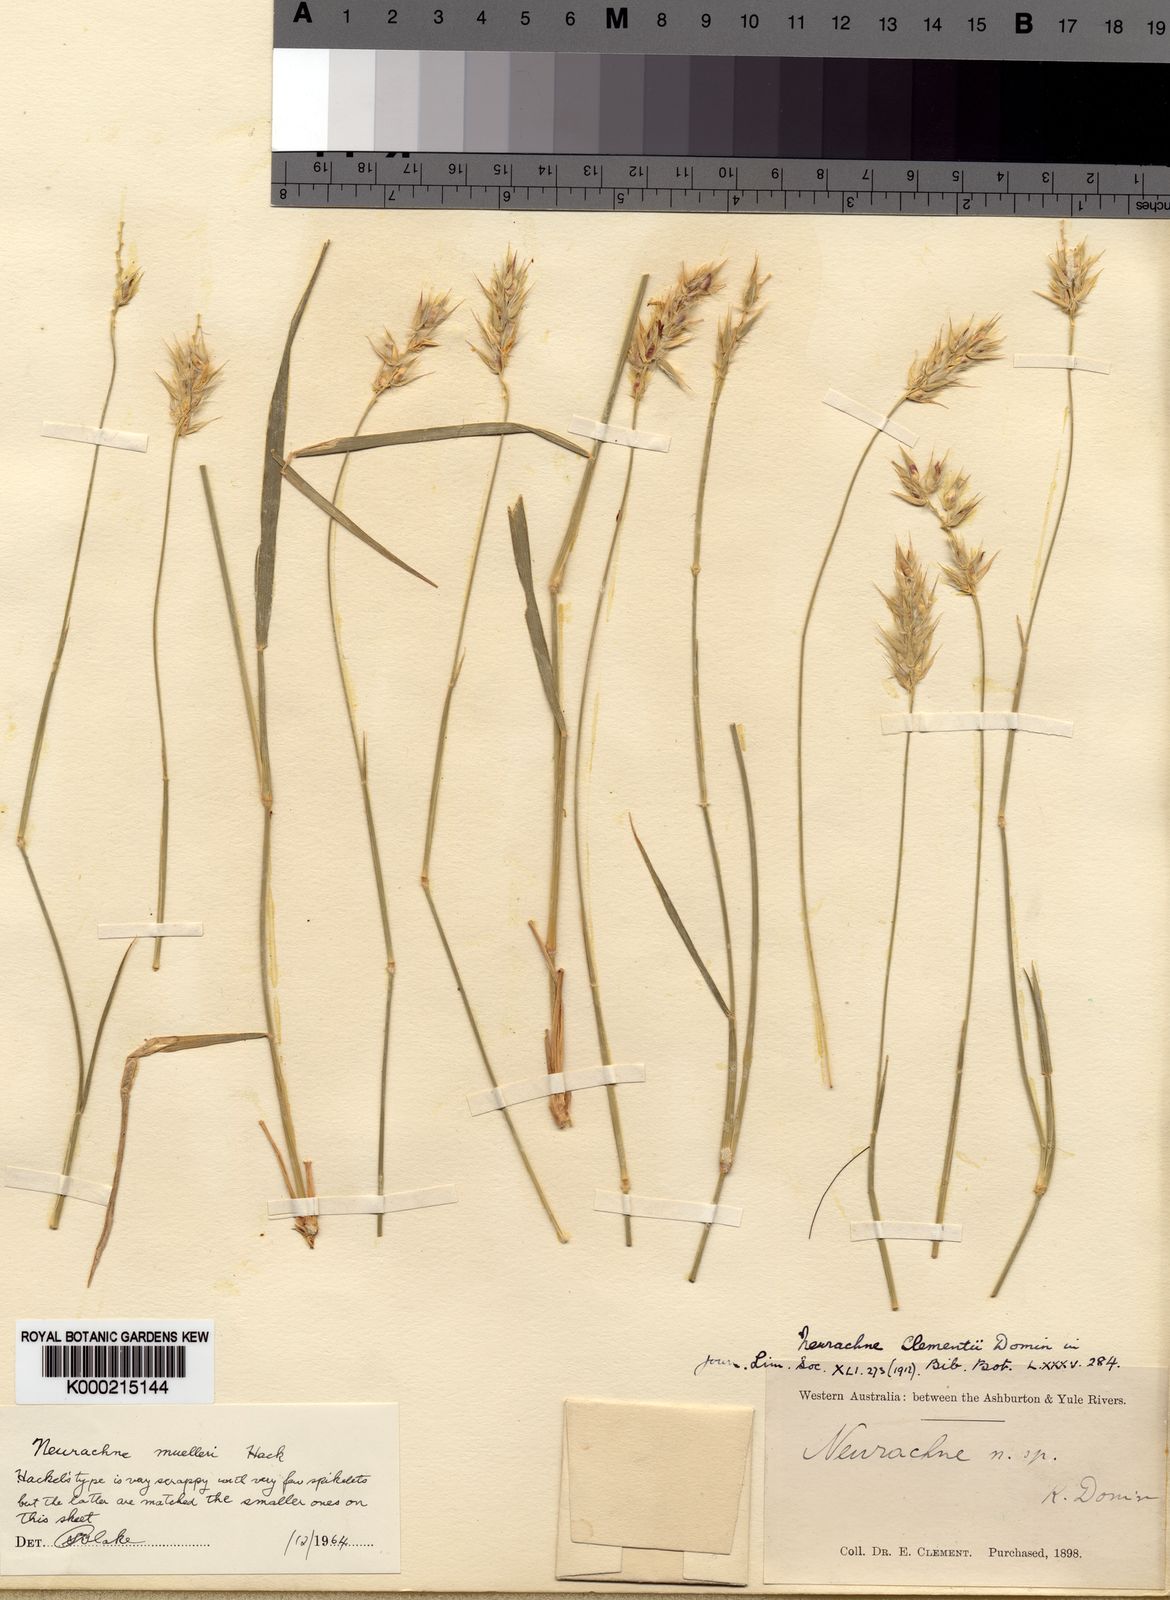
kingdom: Plantae
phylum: Tracheophyta
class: Liliopsida
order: Poales
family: Poaceae
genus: Neurachne
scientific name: Neurachne muelleri
